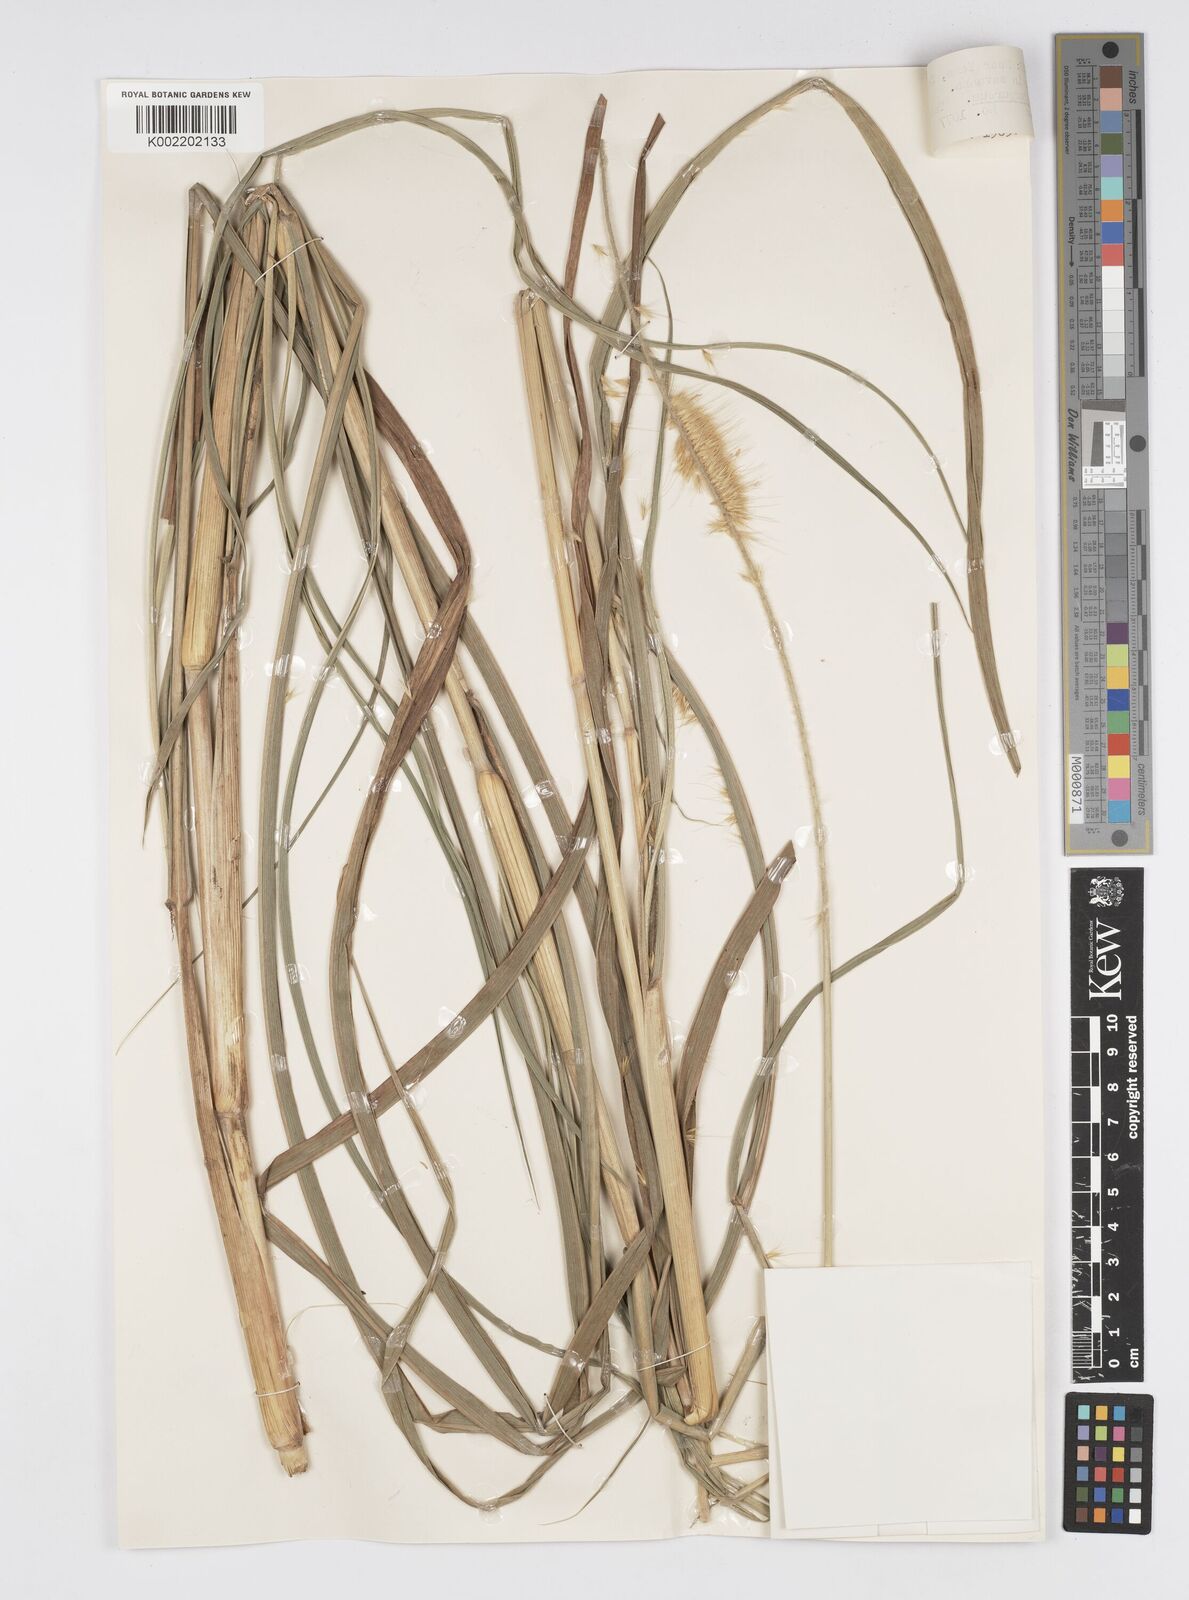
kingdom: Plantae
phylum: Tracheophyta
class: Liliopsida
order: Poales
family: Poaceae
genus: Cenchrus
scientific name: Cenchrus purpureus
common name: Elephant grass
